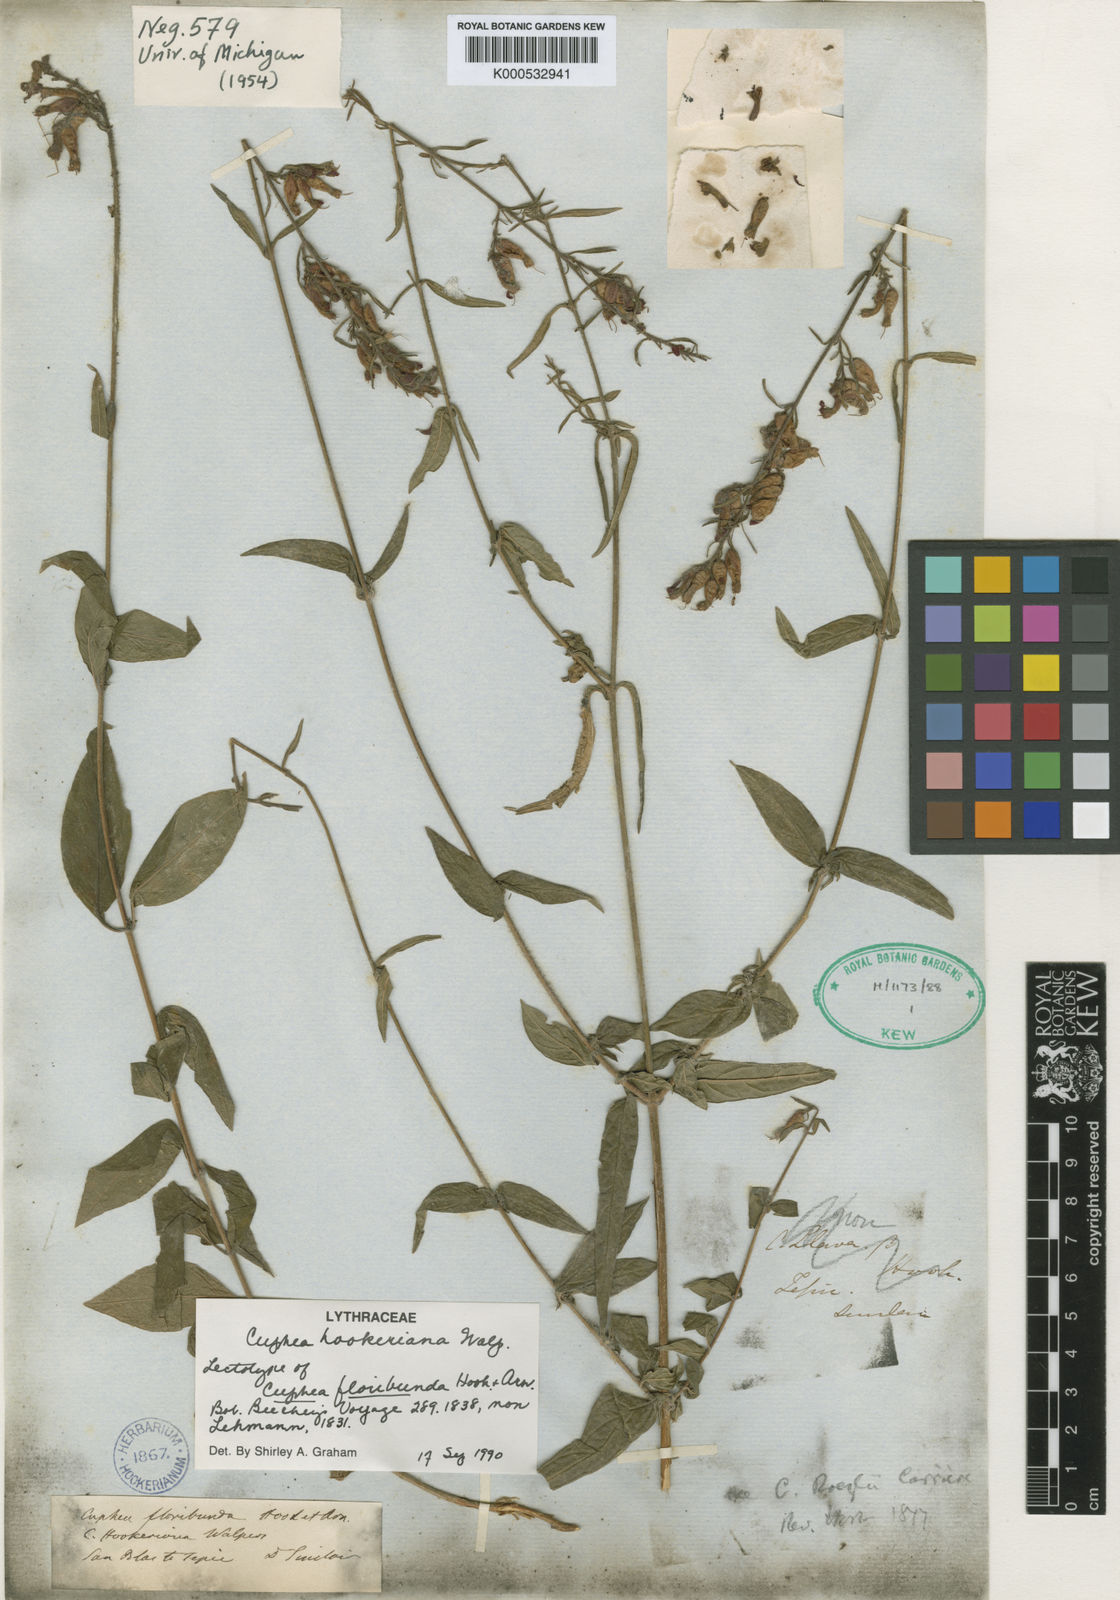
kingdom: Plantae
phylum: Tracheophyta
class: Magnoliopsida
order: Myrtales
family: Lythraceae
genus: Cuphea
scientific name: Cuphea hookeriana
